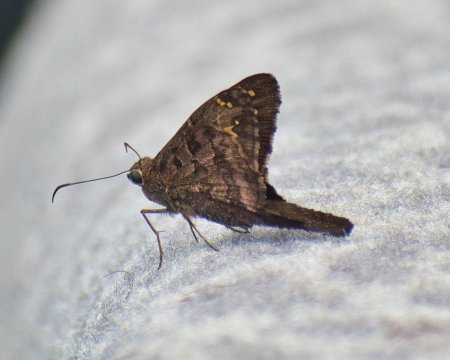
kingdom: Animalia
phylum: Arthropoda
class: Insecta
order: Lepidoptera
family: Hesperiidae
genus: Urbanus
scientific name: Urbanus dorantes
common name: Dorantes Longtail
